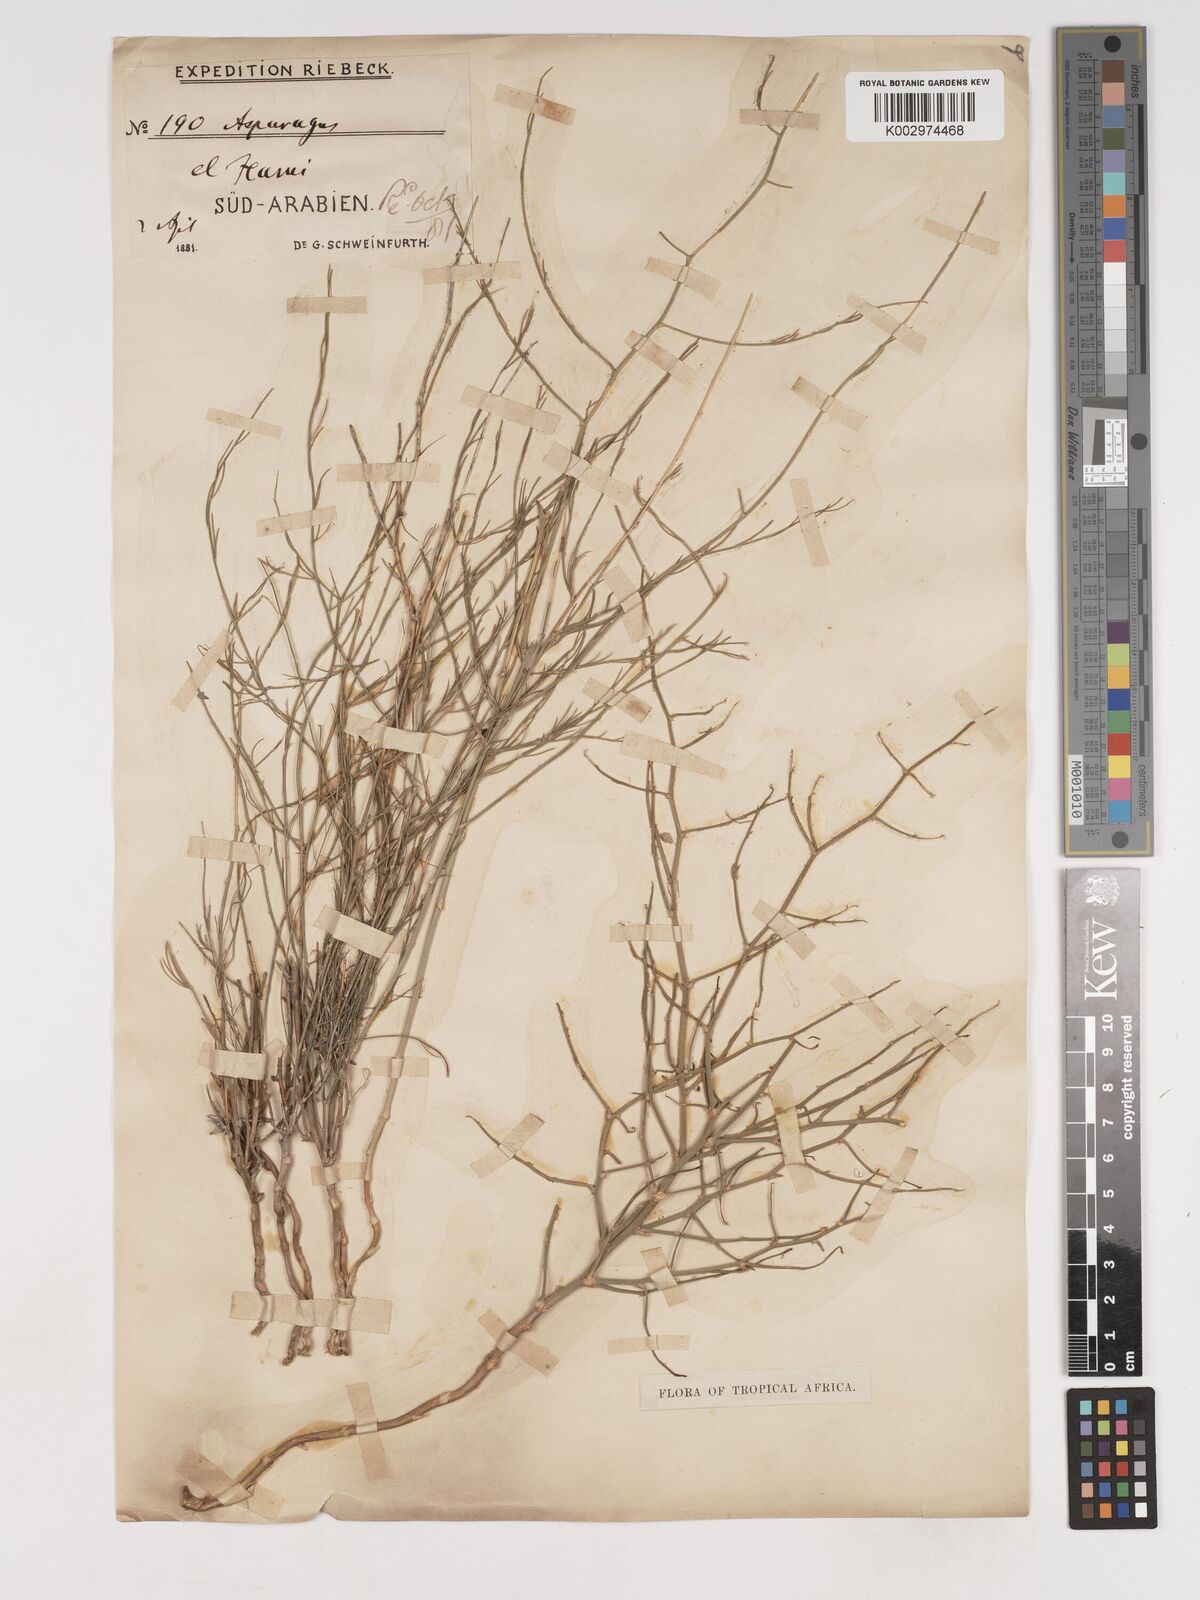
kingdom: Plantae
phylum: Tracheophyta
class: Liliopsida
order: Asparagales
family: Asparagaceae
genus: Asparagus
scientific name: Asparagus virgatus
